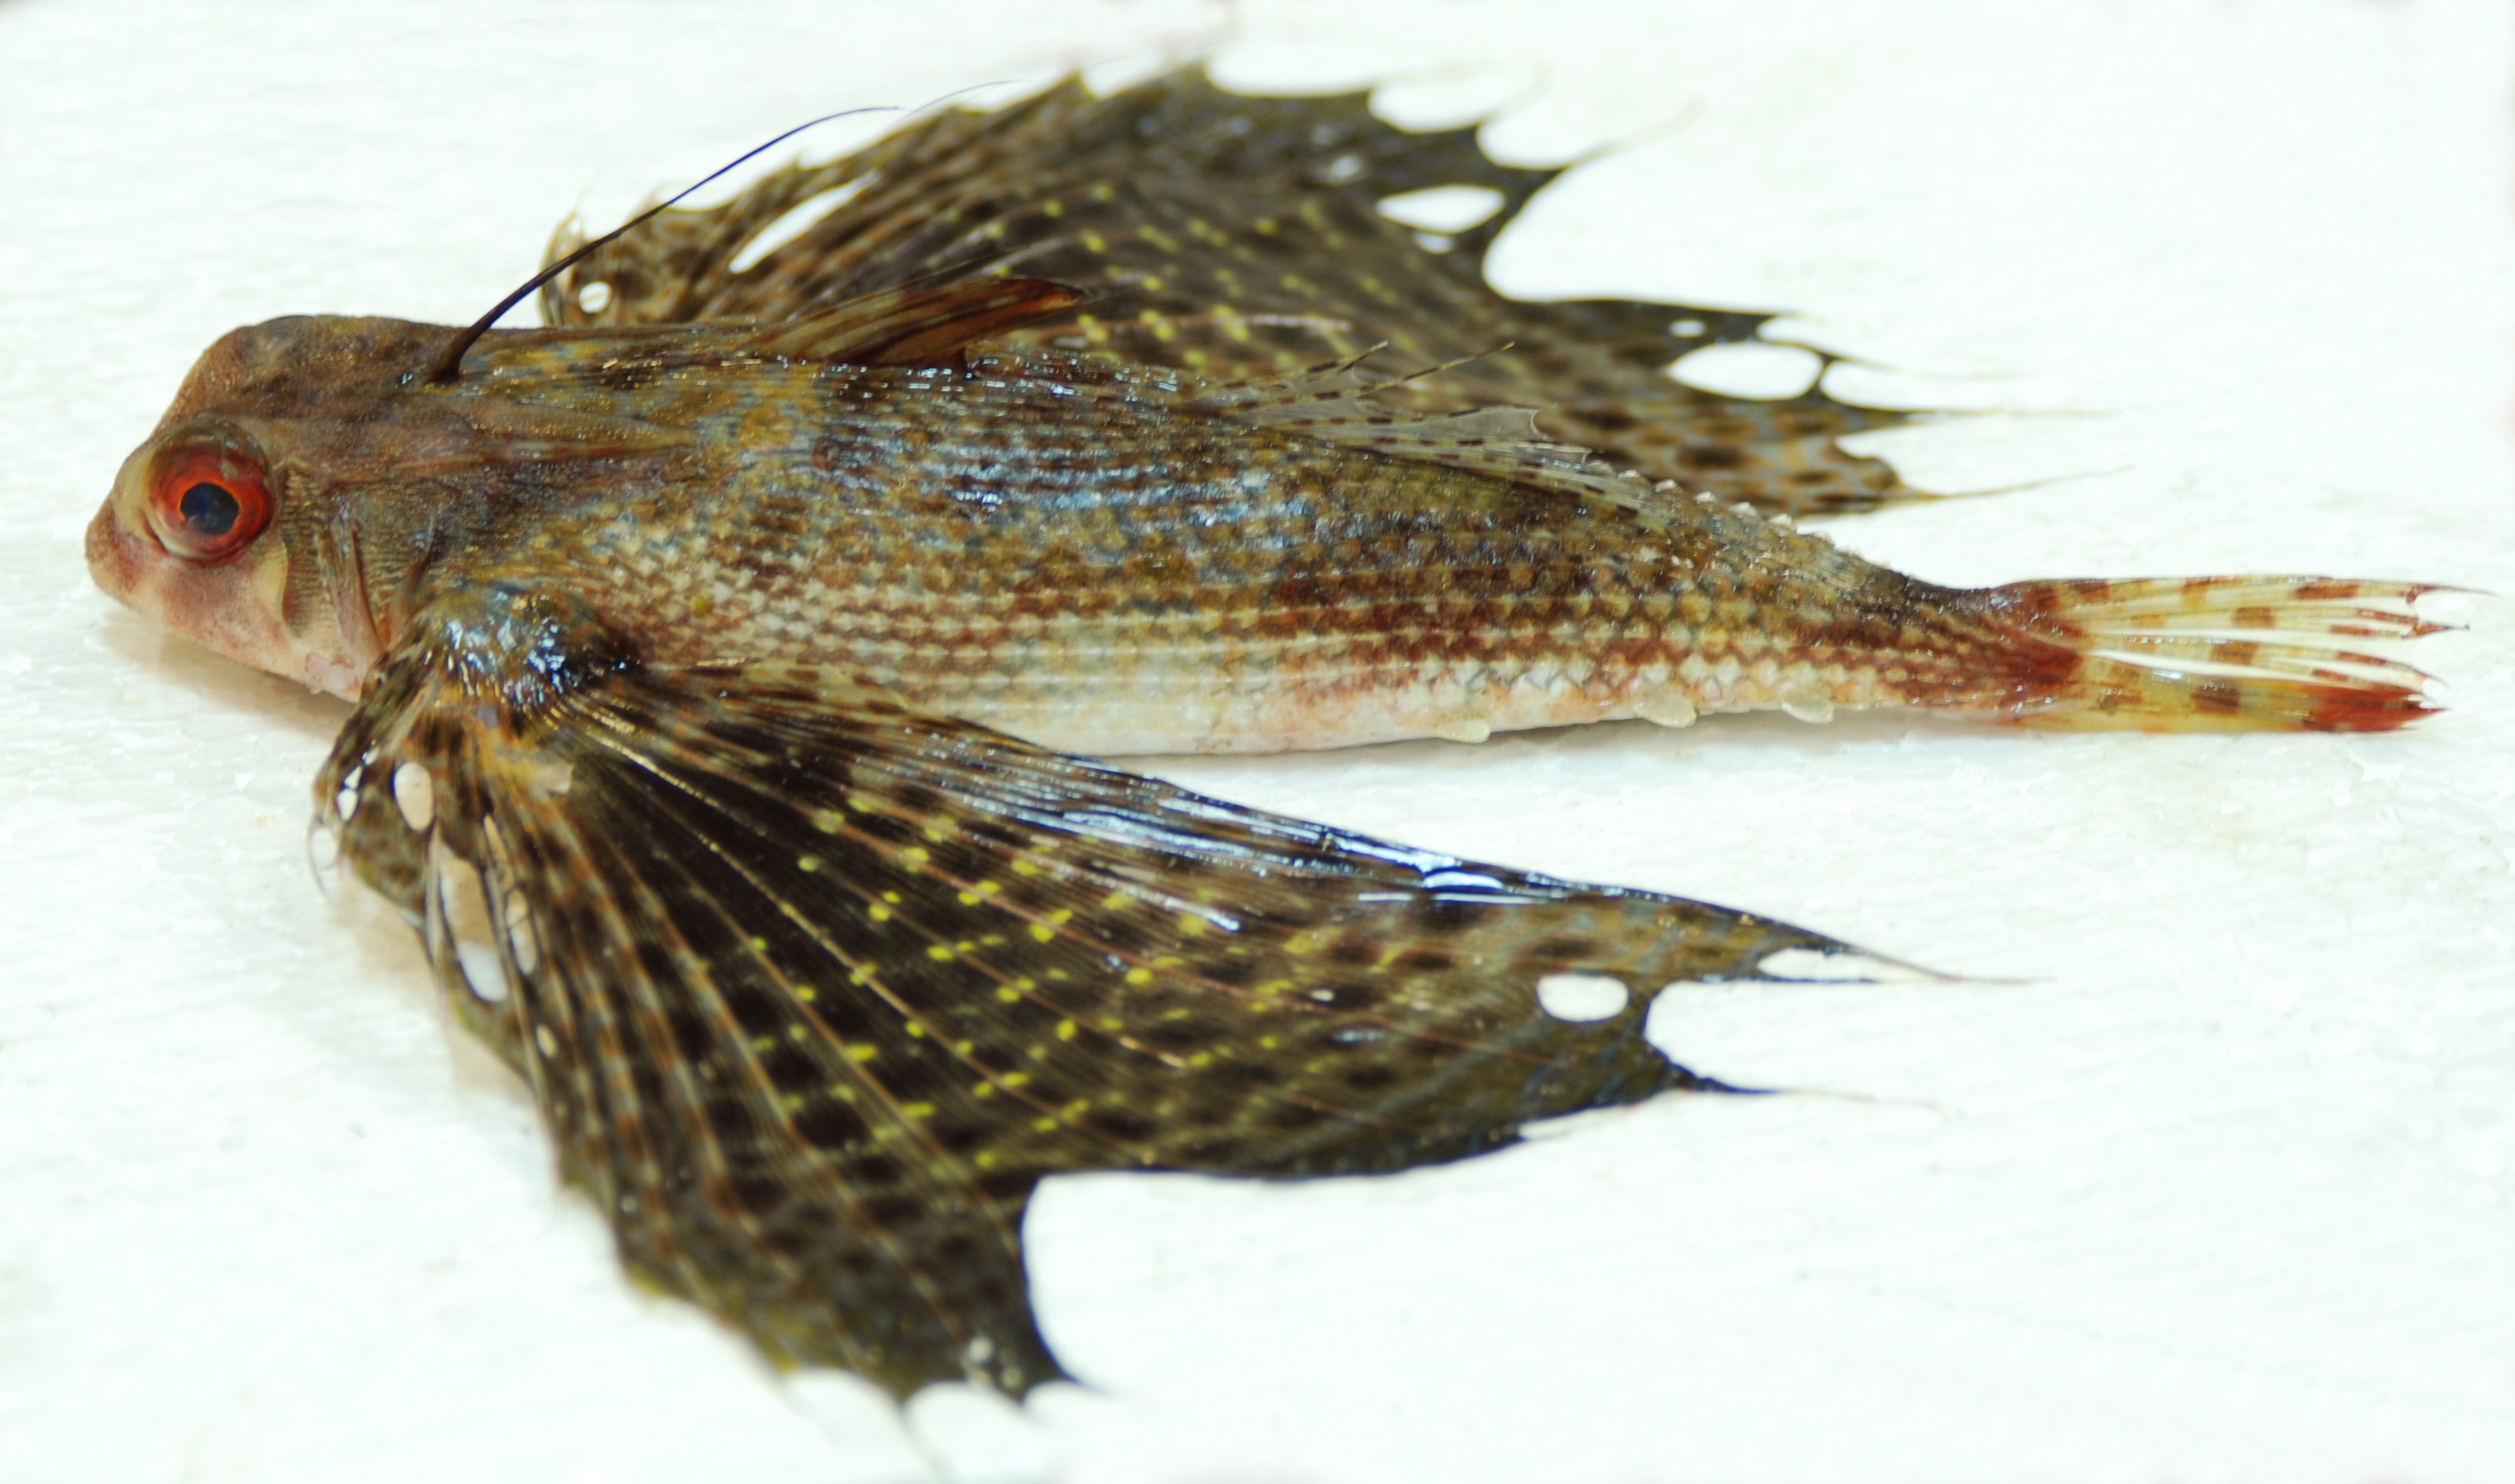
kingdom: Animalia
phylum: Chordata
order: Scorpaeniformes
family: Dactylopteridae
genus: Dactyloptena
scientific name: Dactyloptena orientalis
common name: Flying gurnard
